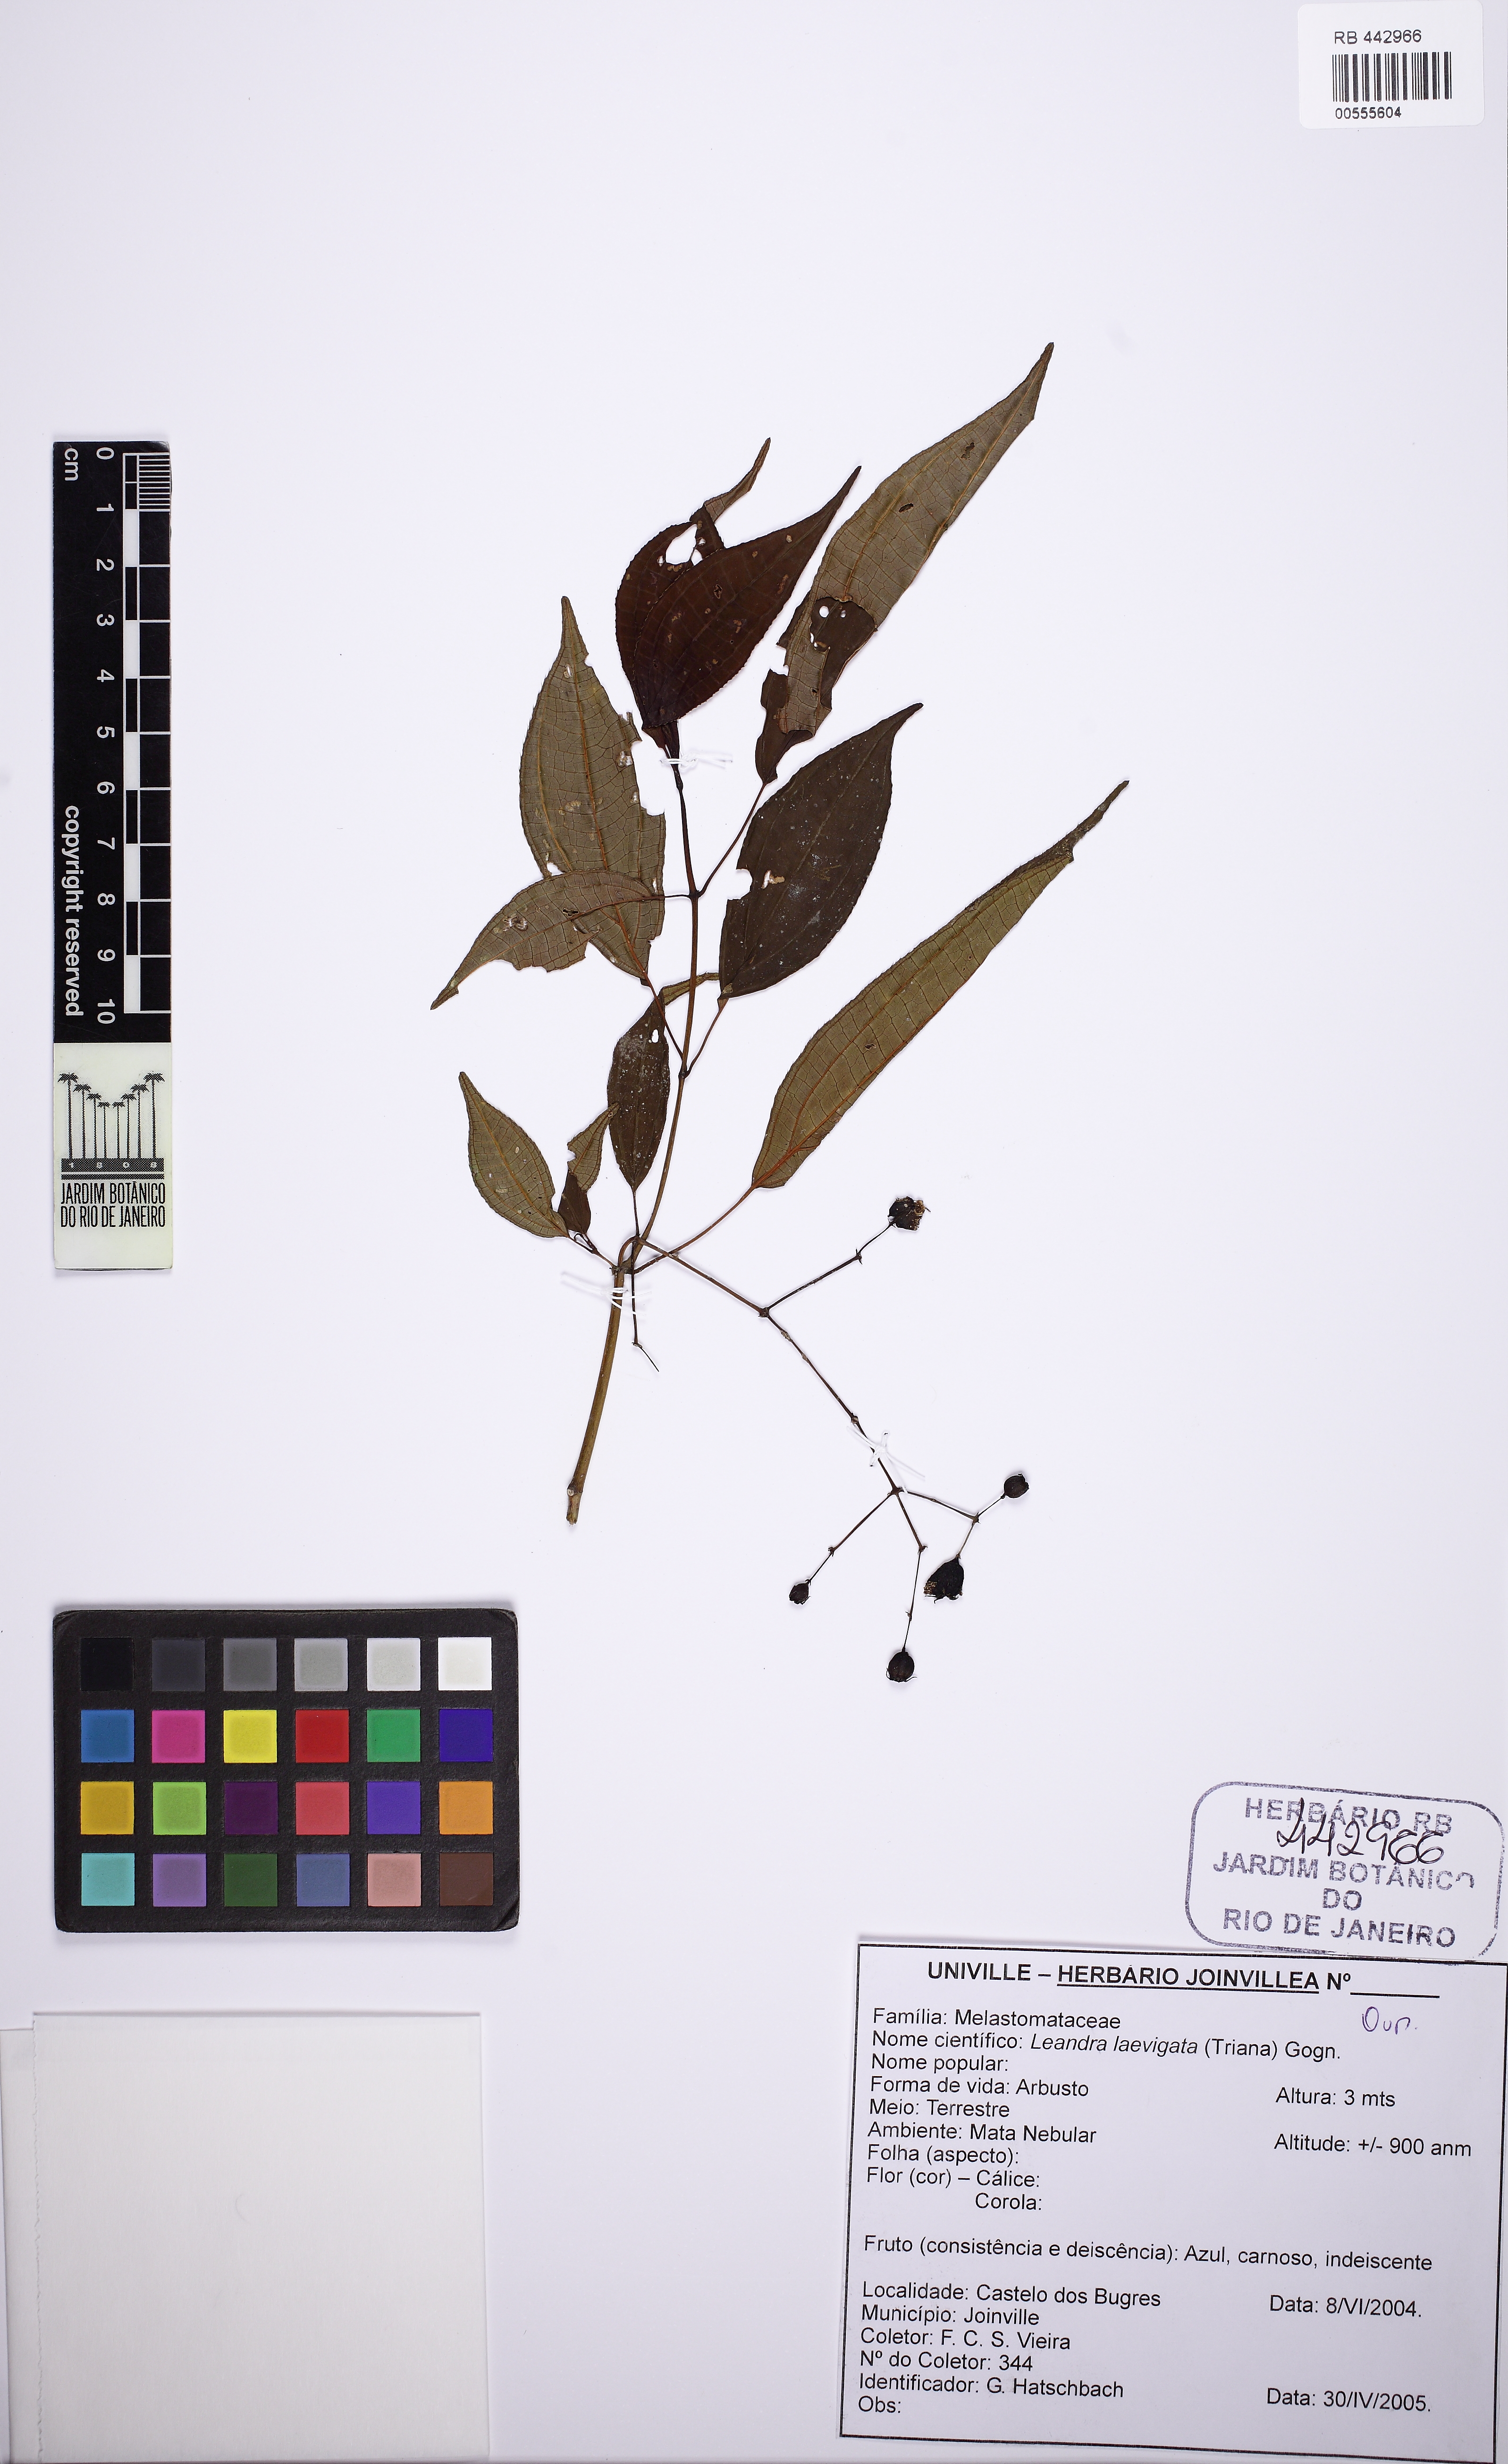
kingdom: Plantae
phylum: Tracheophyta
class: Magnoliopsida
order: Myrtales
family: Melastomataceae
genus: Miconia
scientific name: Miconia ciliolata
